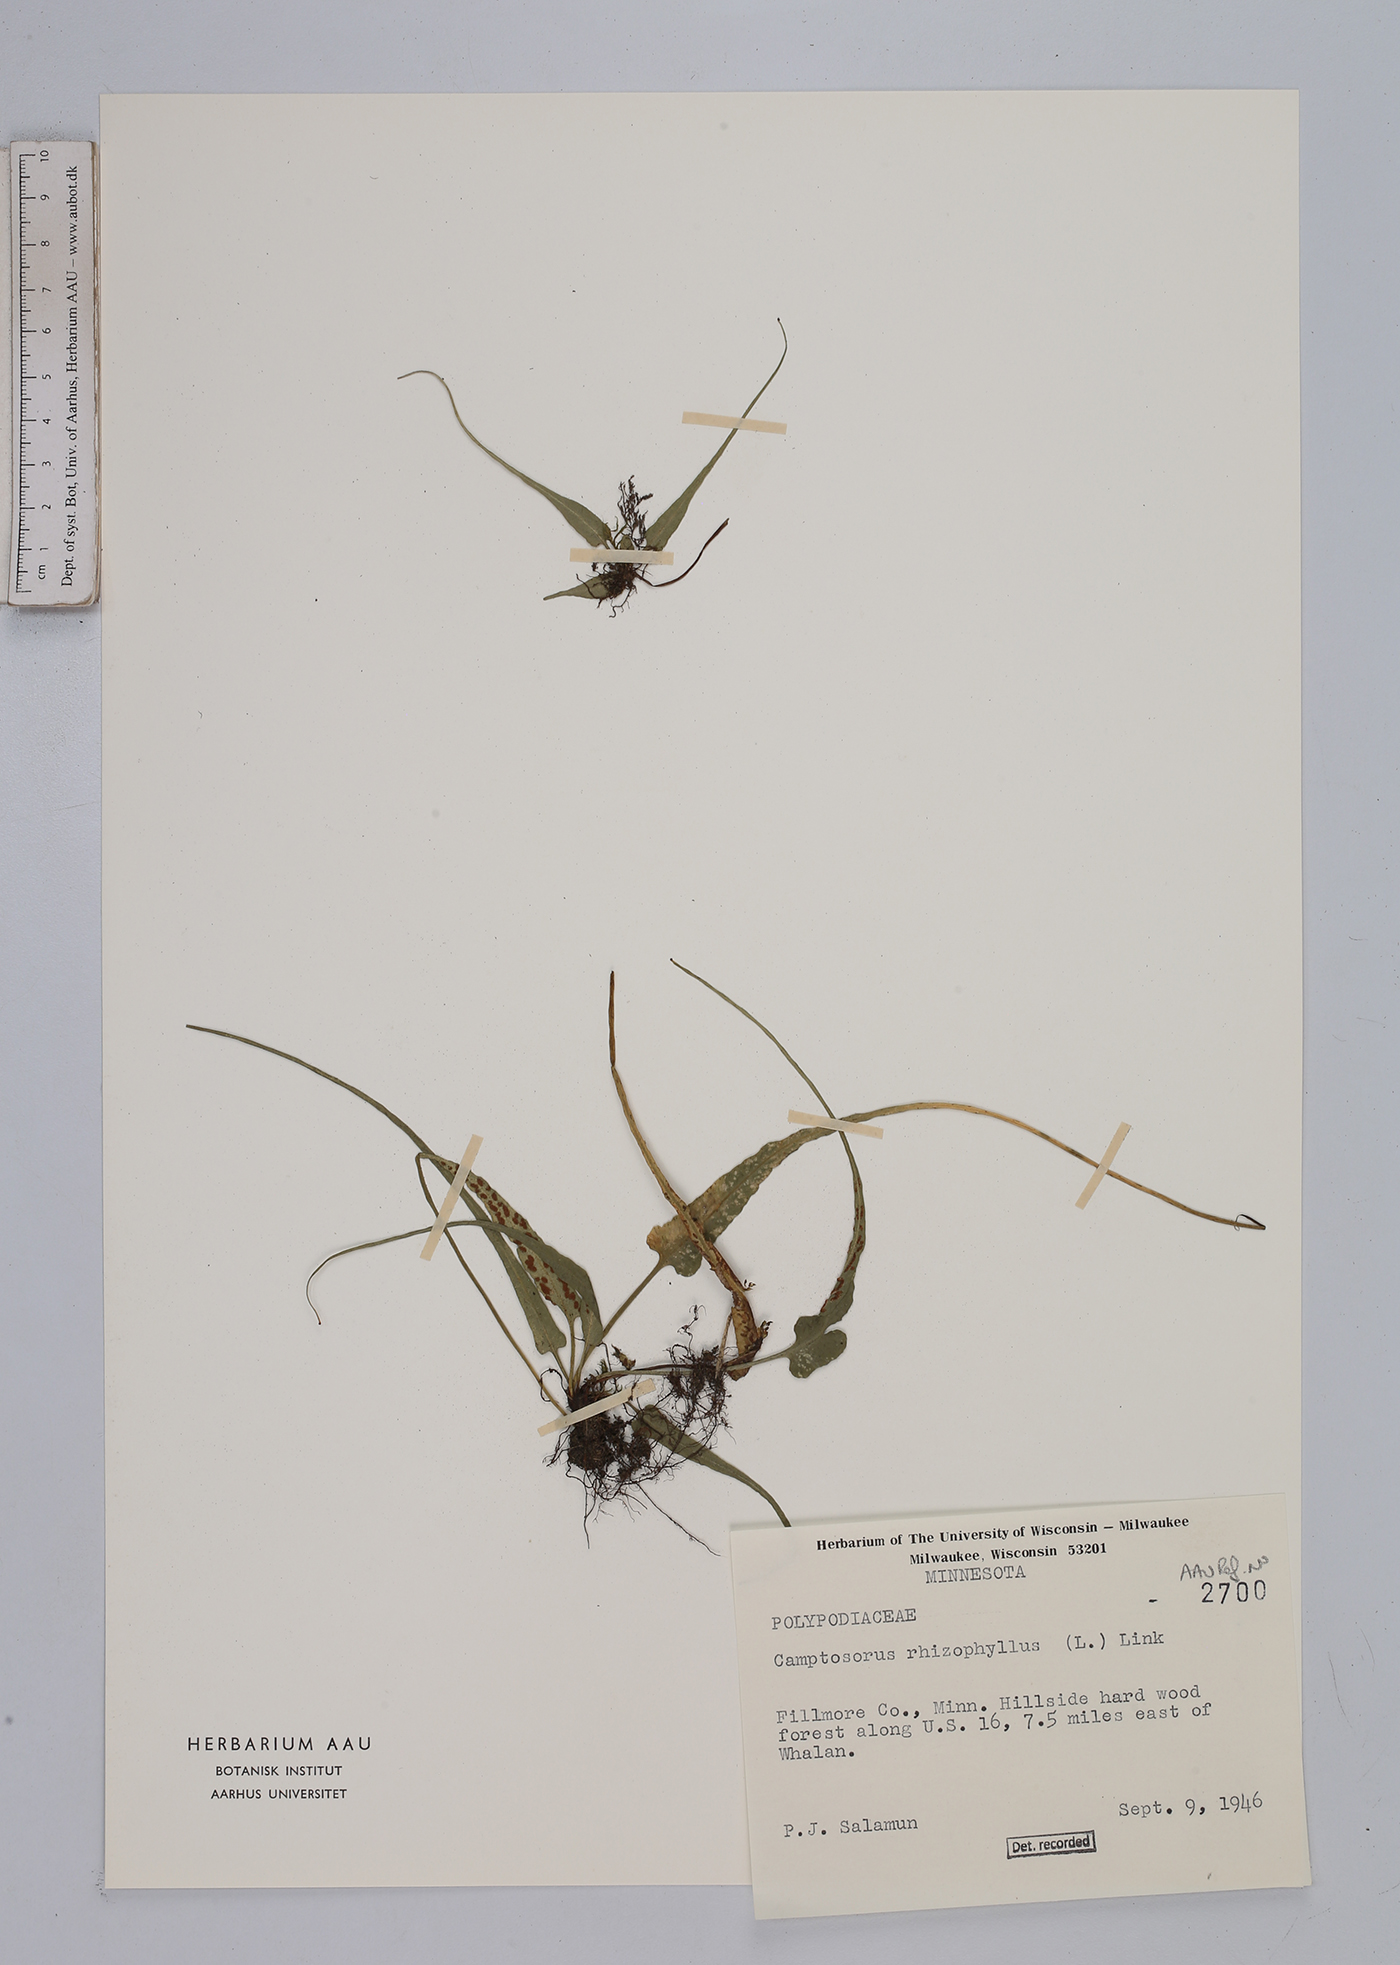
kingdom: Plantae
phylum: Tracheophyta
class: Polypodiopsida
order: Polypodiales
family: Aspleniaceae
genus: Asplenium
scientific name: Asplenium rhizophyllum
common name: Walking fern
